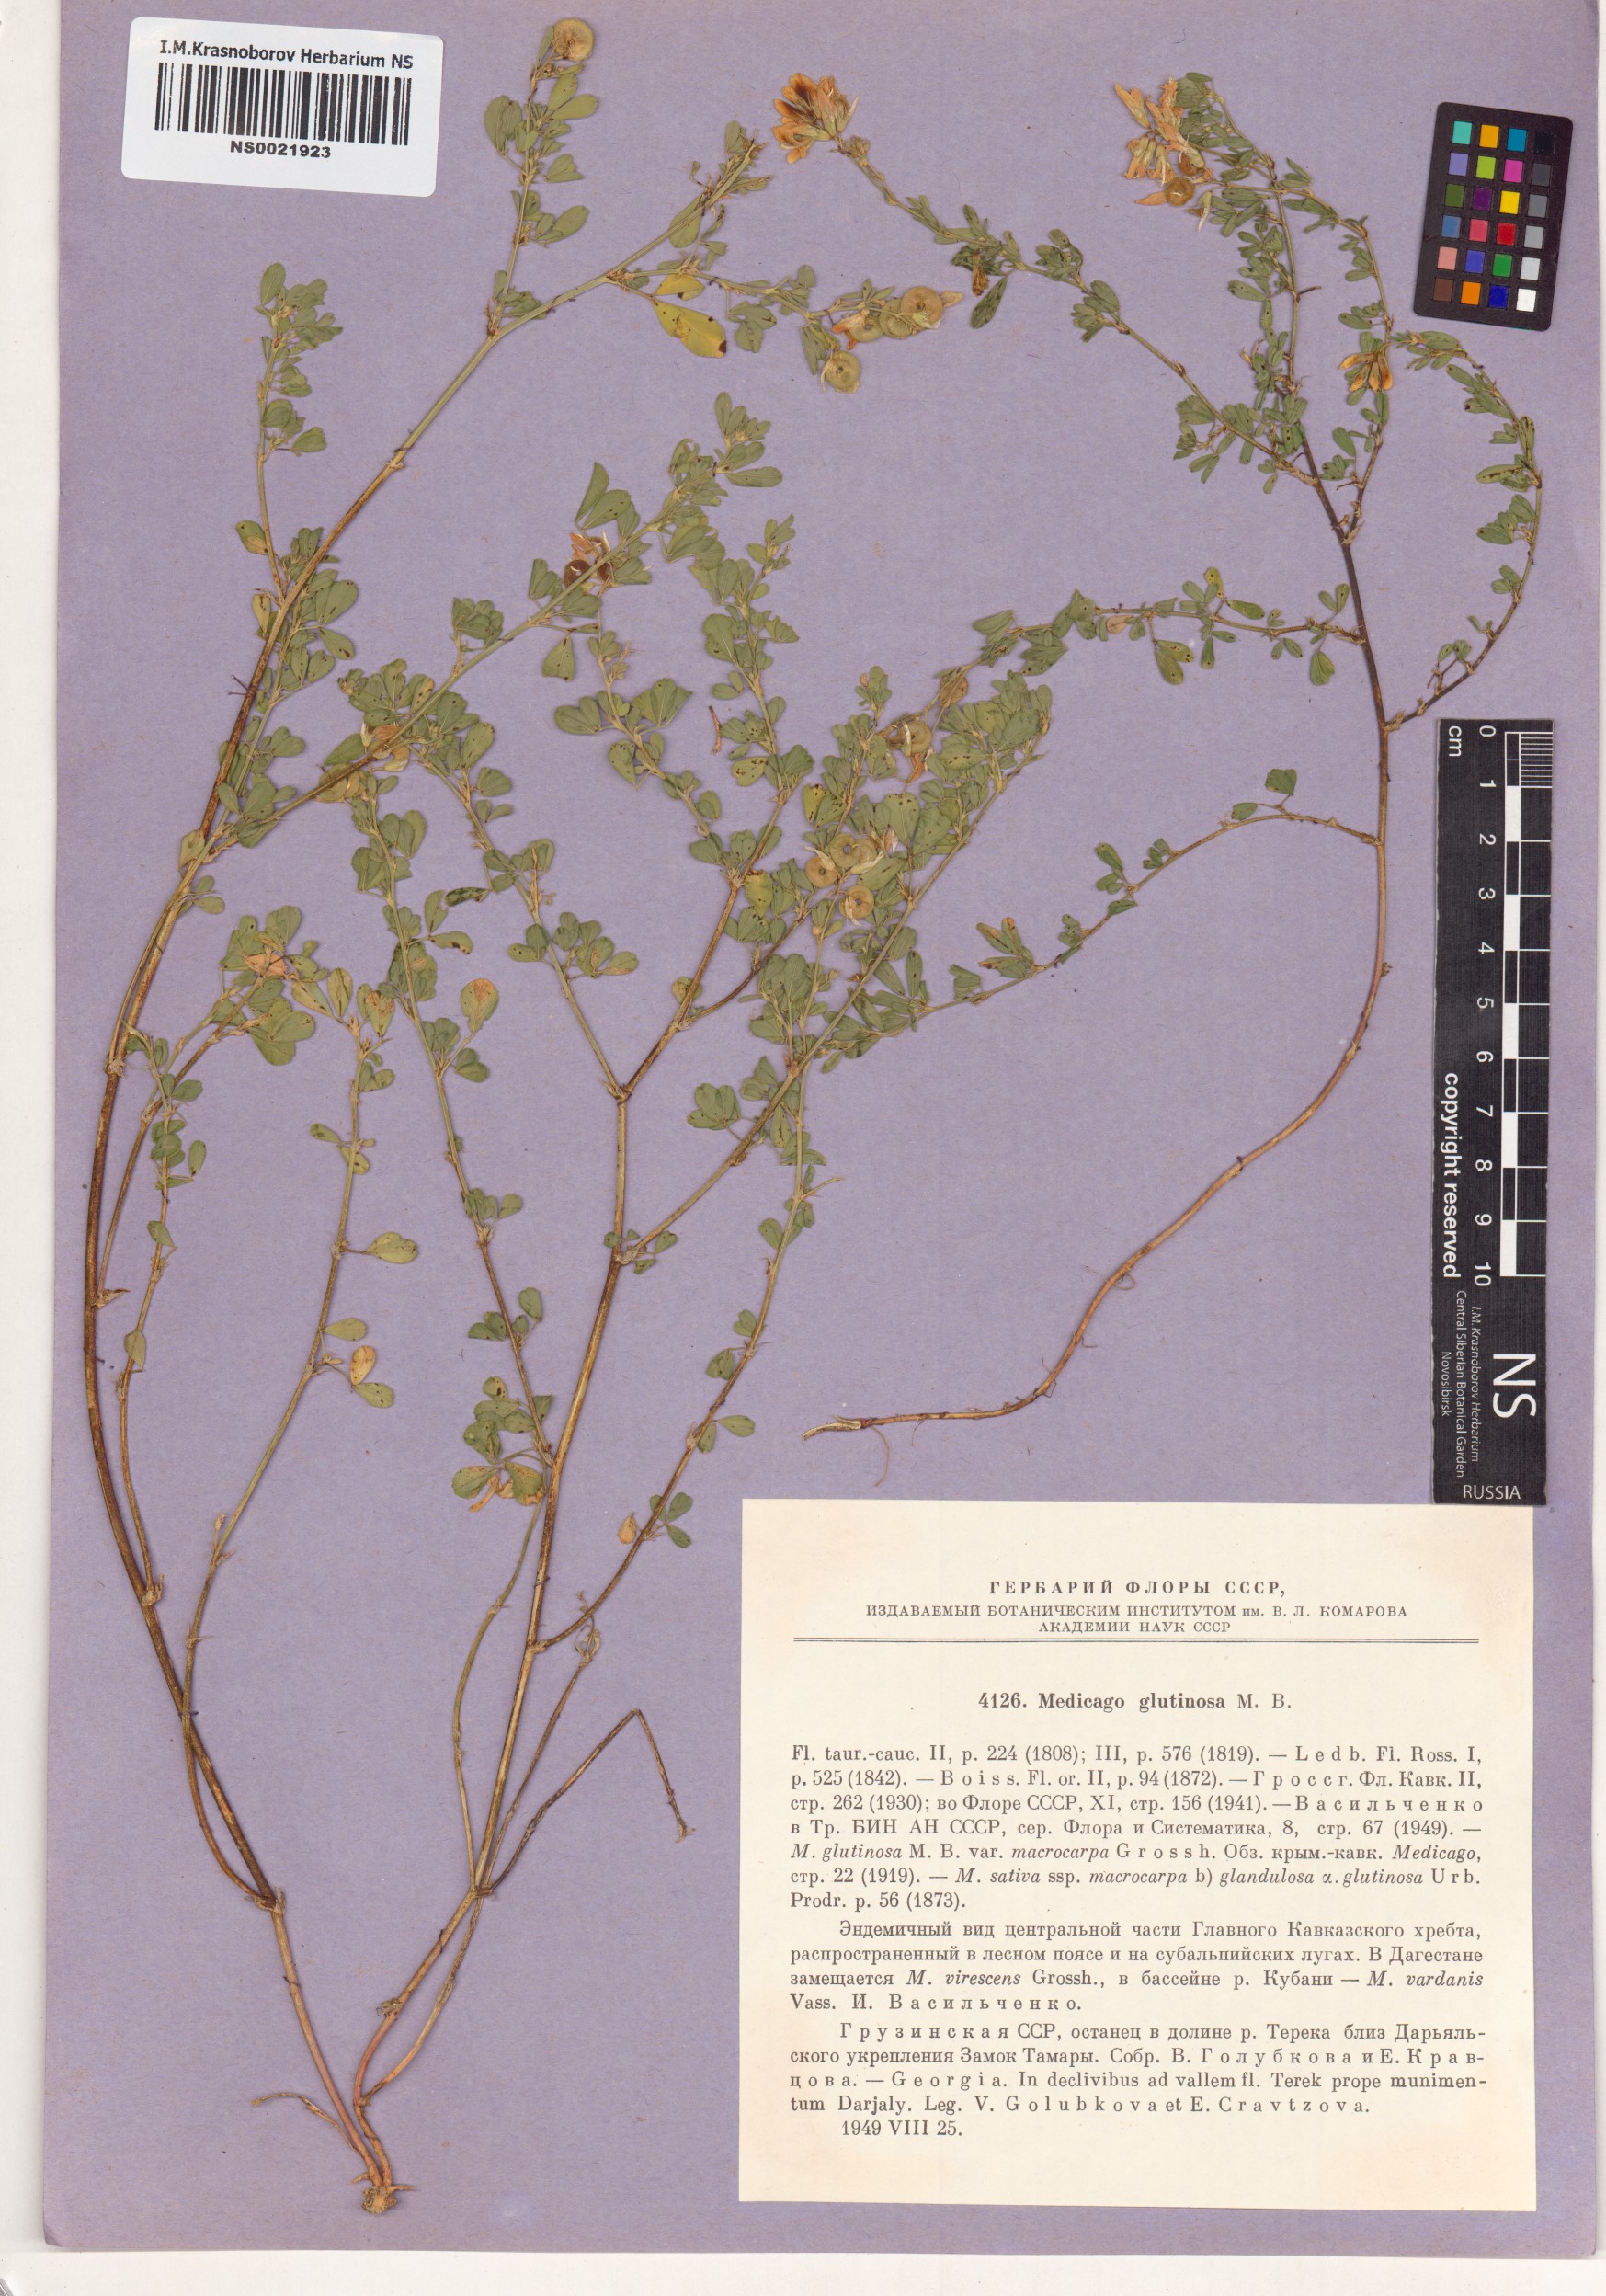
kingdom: Plantae
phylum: Tracheophyta
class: Magnoliopsida
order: Fabales
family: Fabaceae
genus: Medicago
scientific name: Medicago sativa
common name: Alfalfa
